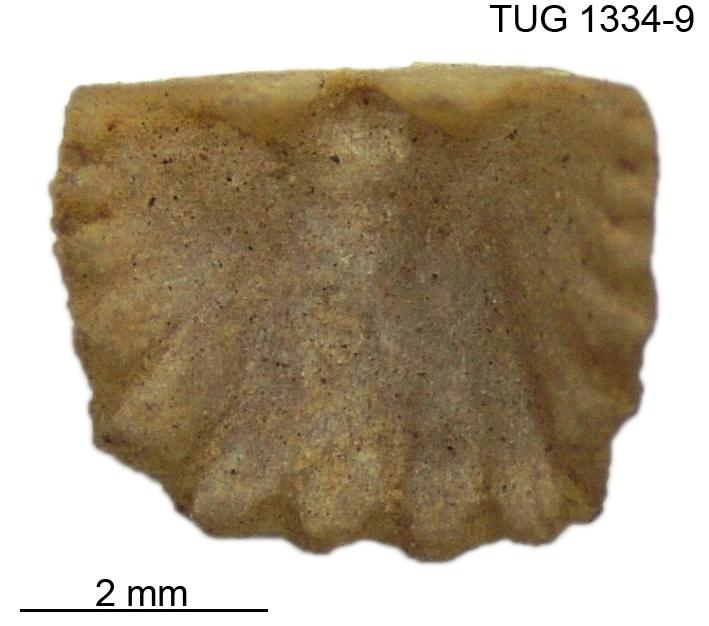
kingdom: Animalia
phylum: Brachiopoda
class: Rhynchonellata
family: Hesperorthidae
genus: Ptychopleurella
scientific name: Ptychopleurella pirguensis
